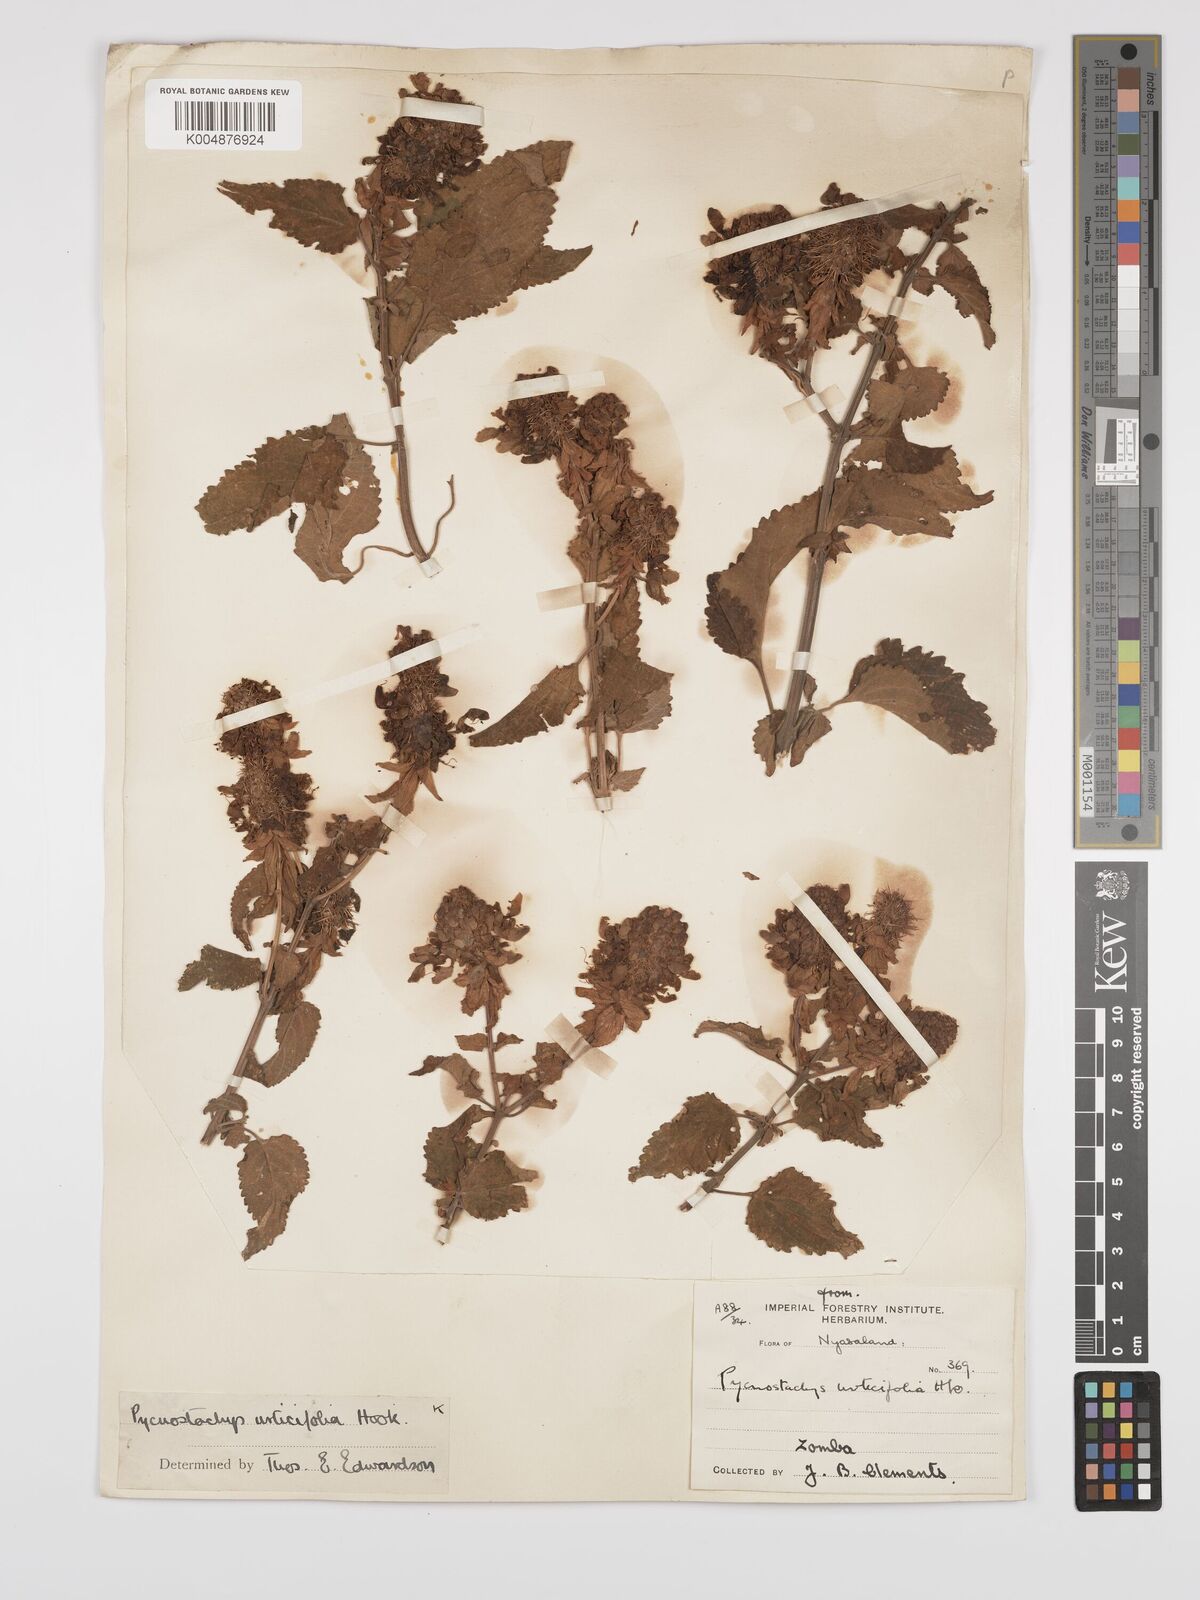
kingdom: Plantae
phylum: Tracheophyta
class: Magnoliopsida
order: Lamiales
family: Lamiaceae
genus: Coleus
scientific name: Coleus livingstonei
